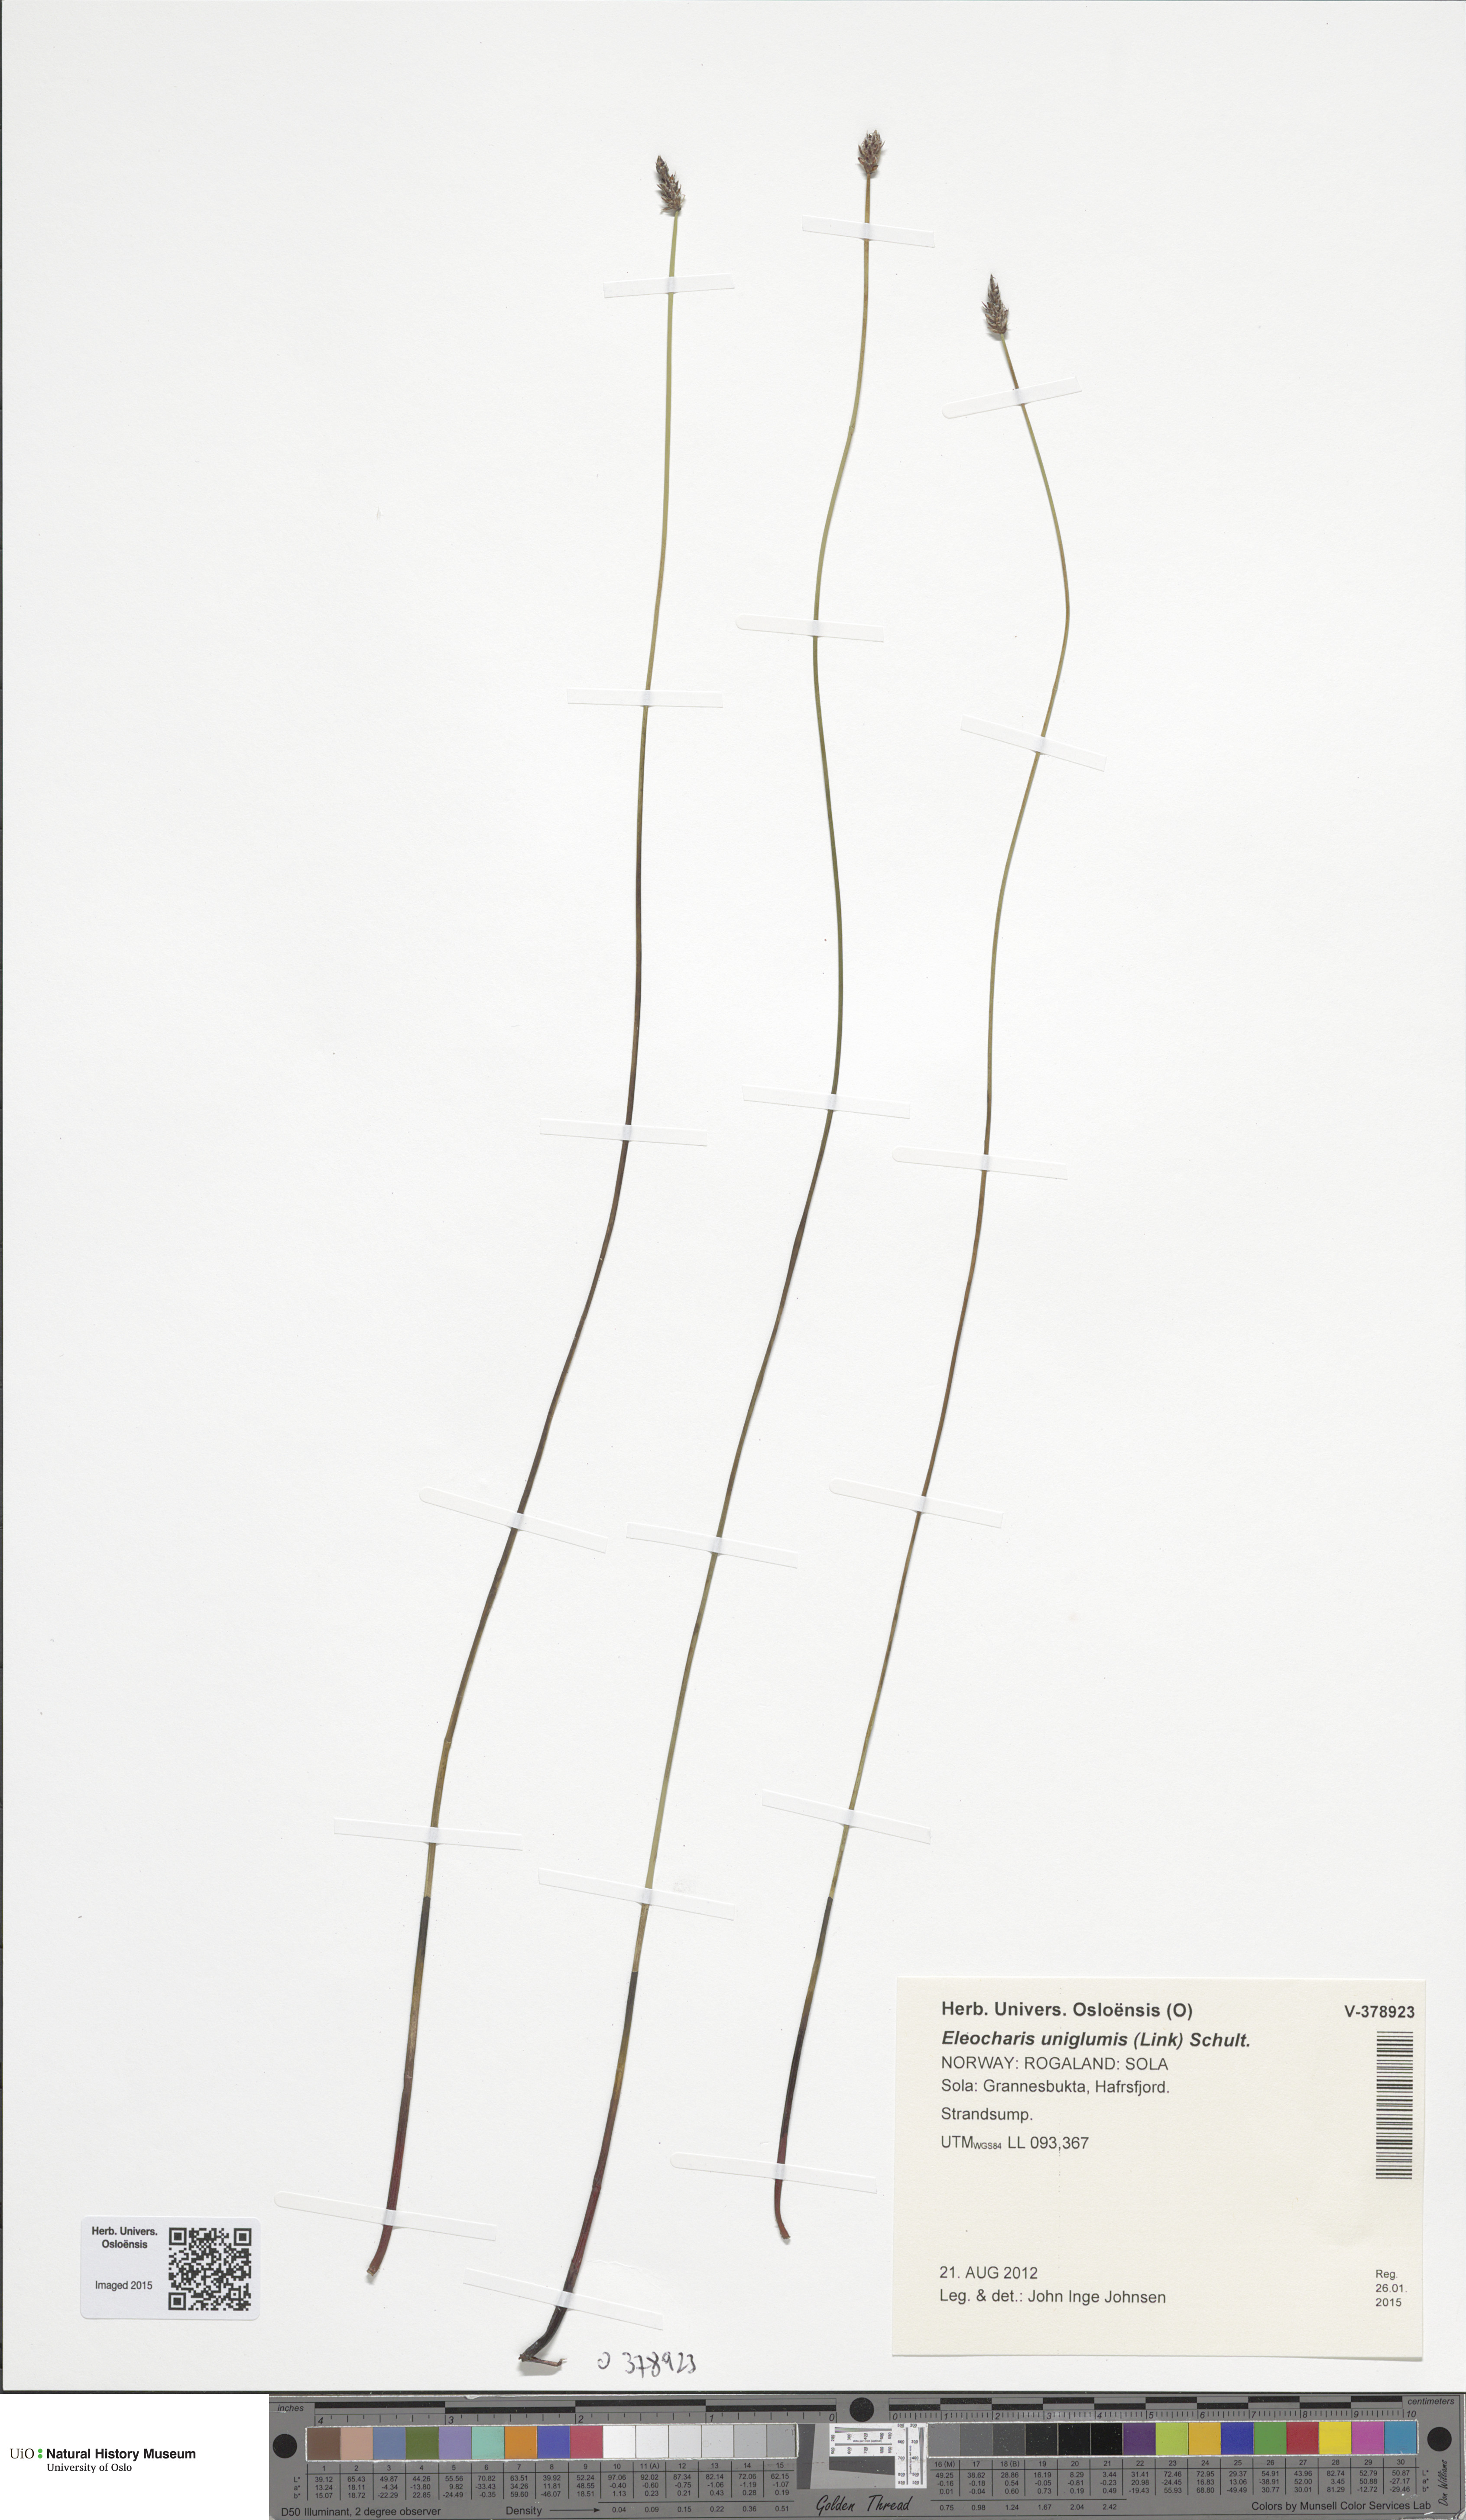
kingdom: Plantae
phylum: Tracheophyta
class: Liliopsida
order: Poales
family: Cyperaceae
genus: Eleocharis
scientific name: Eleocharis uniglumis
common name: Slender spike-rush
